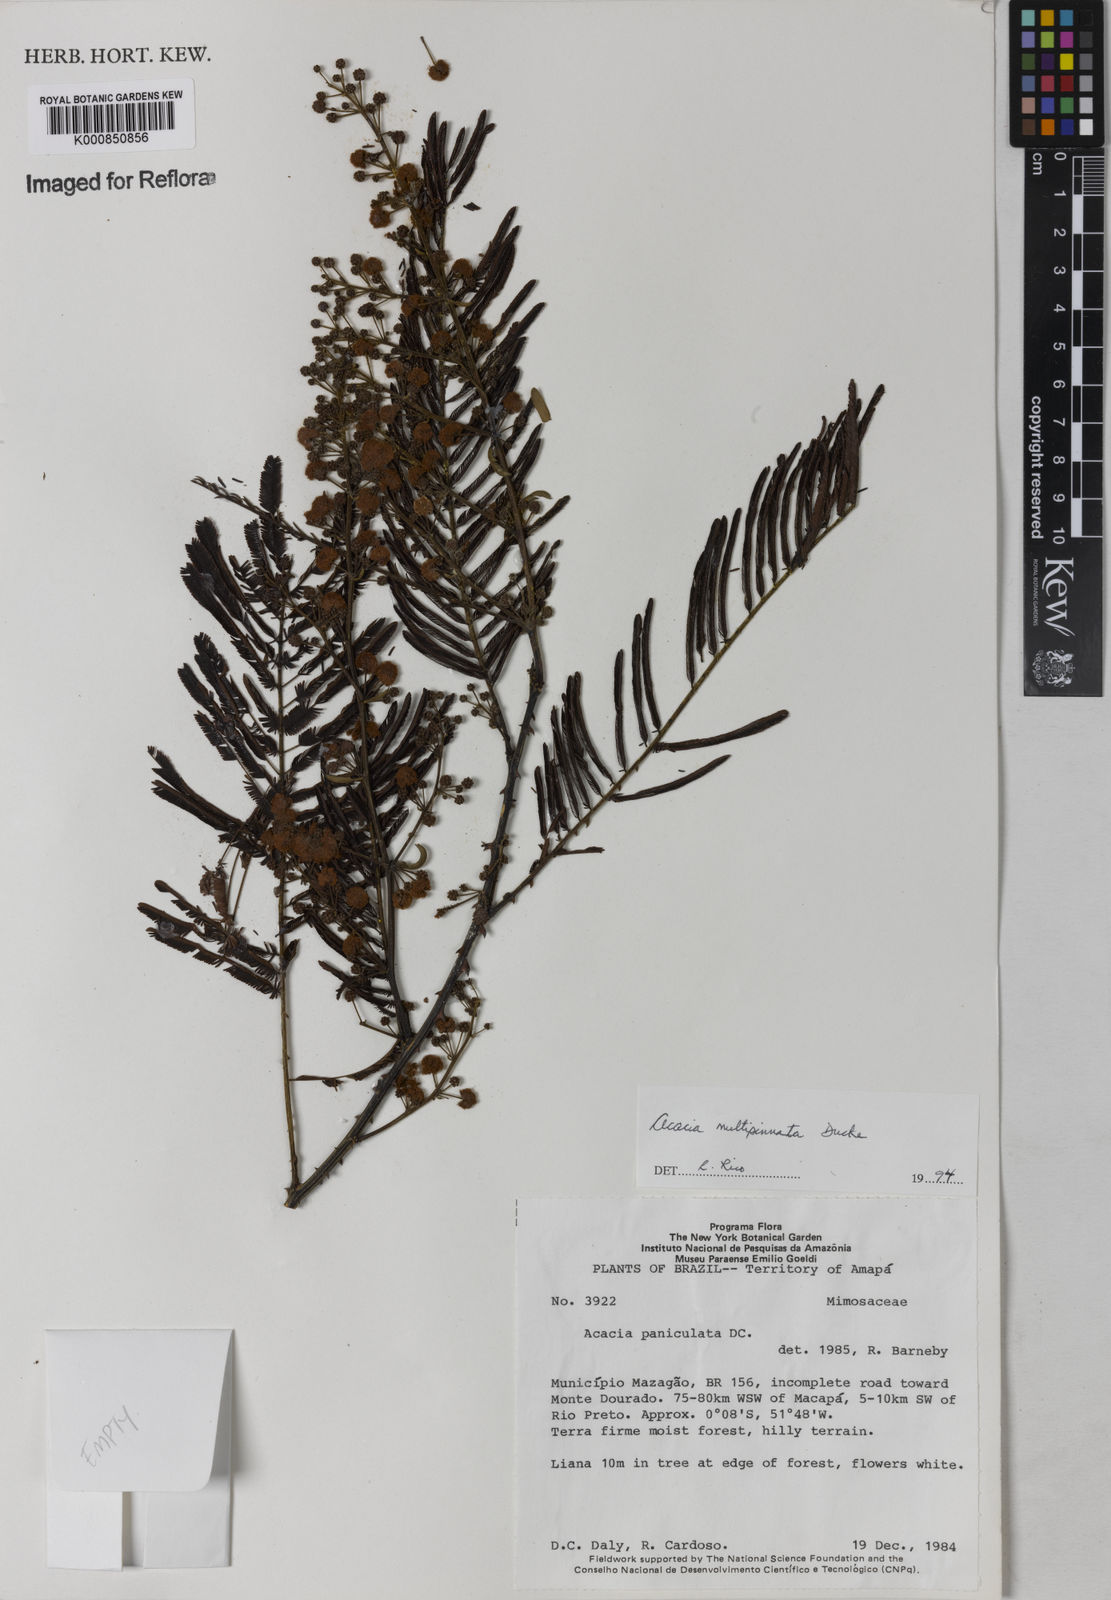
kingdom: Plantae
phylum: Tracheophyta
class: Magnoliopsida
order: Fabales
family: Fabaceae
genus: Senegalia
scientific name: Senegalia paniculata
